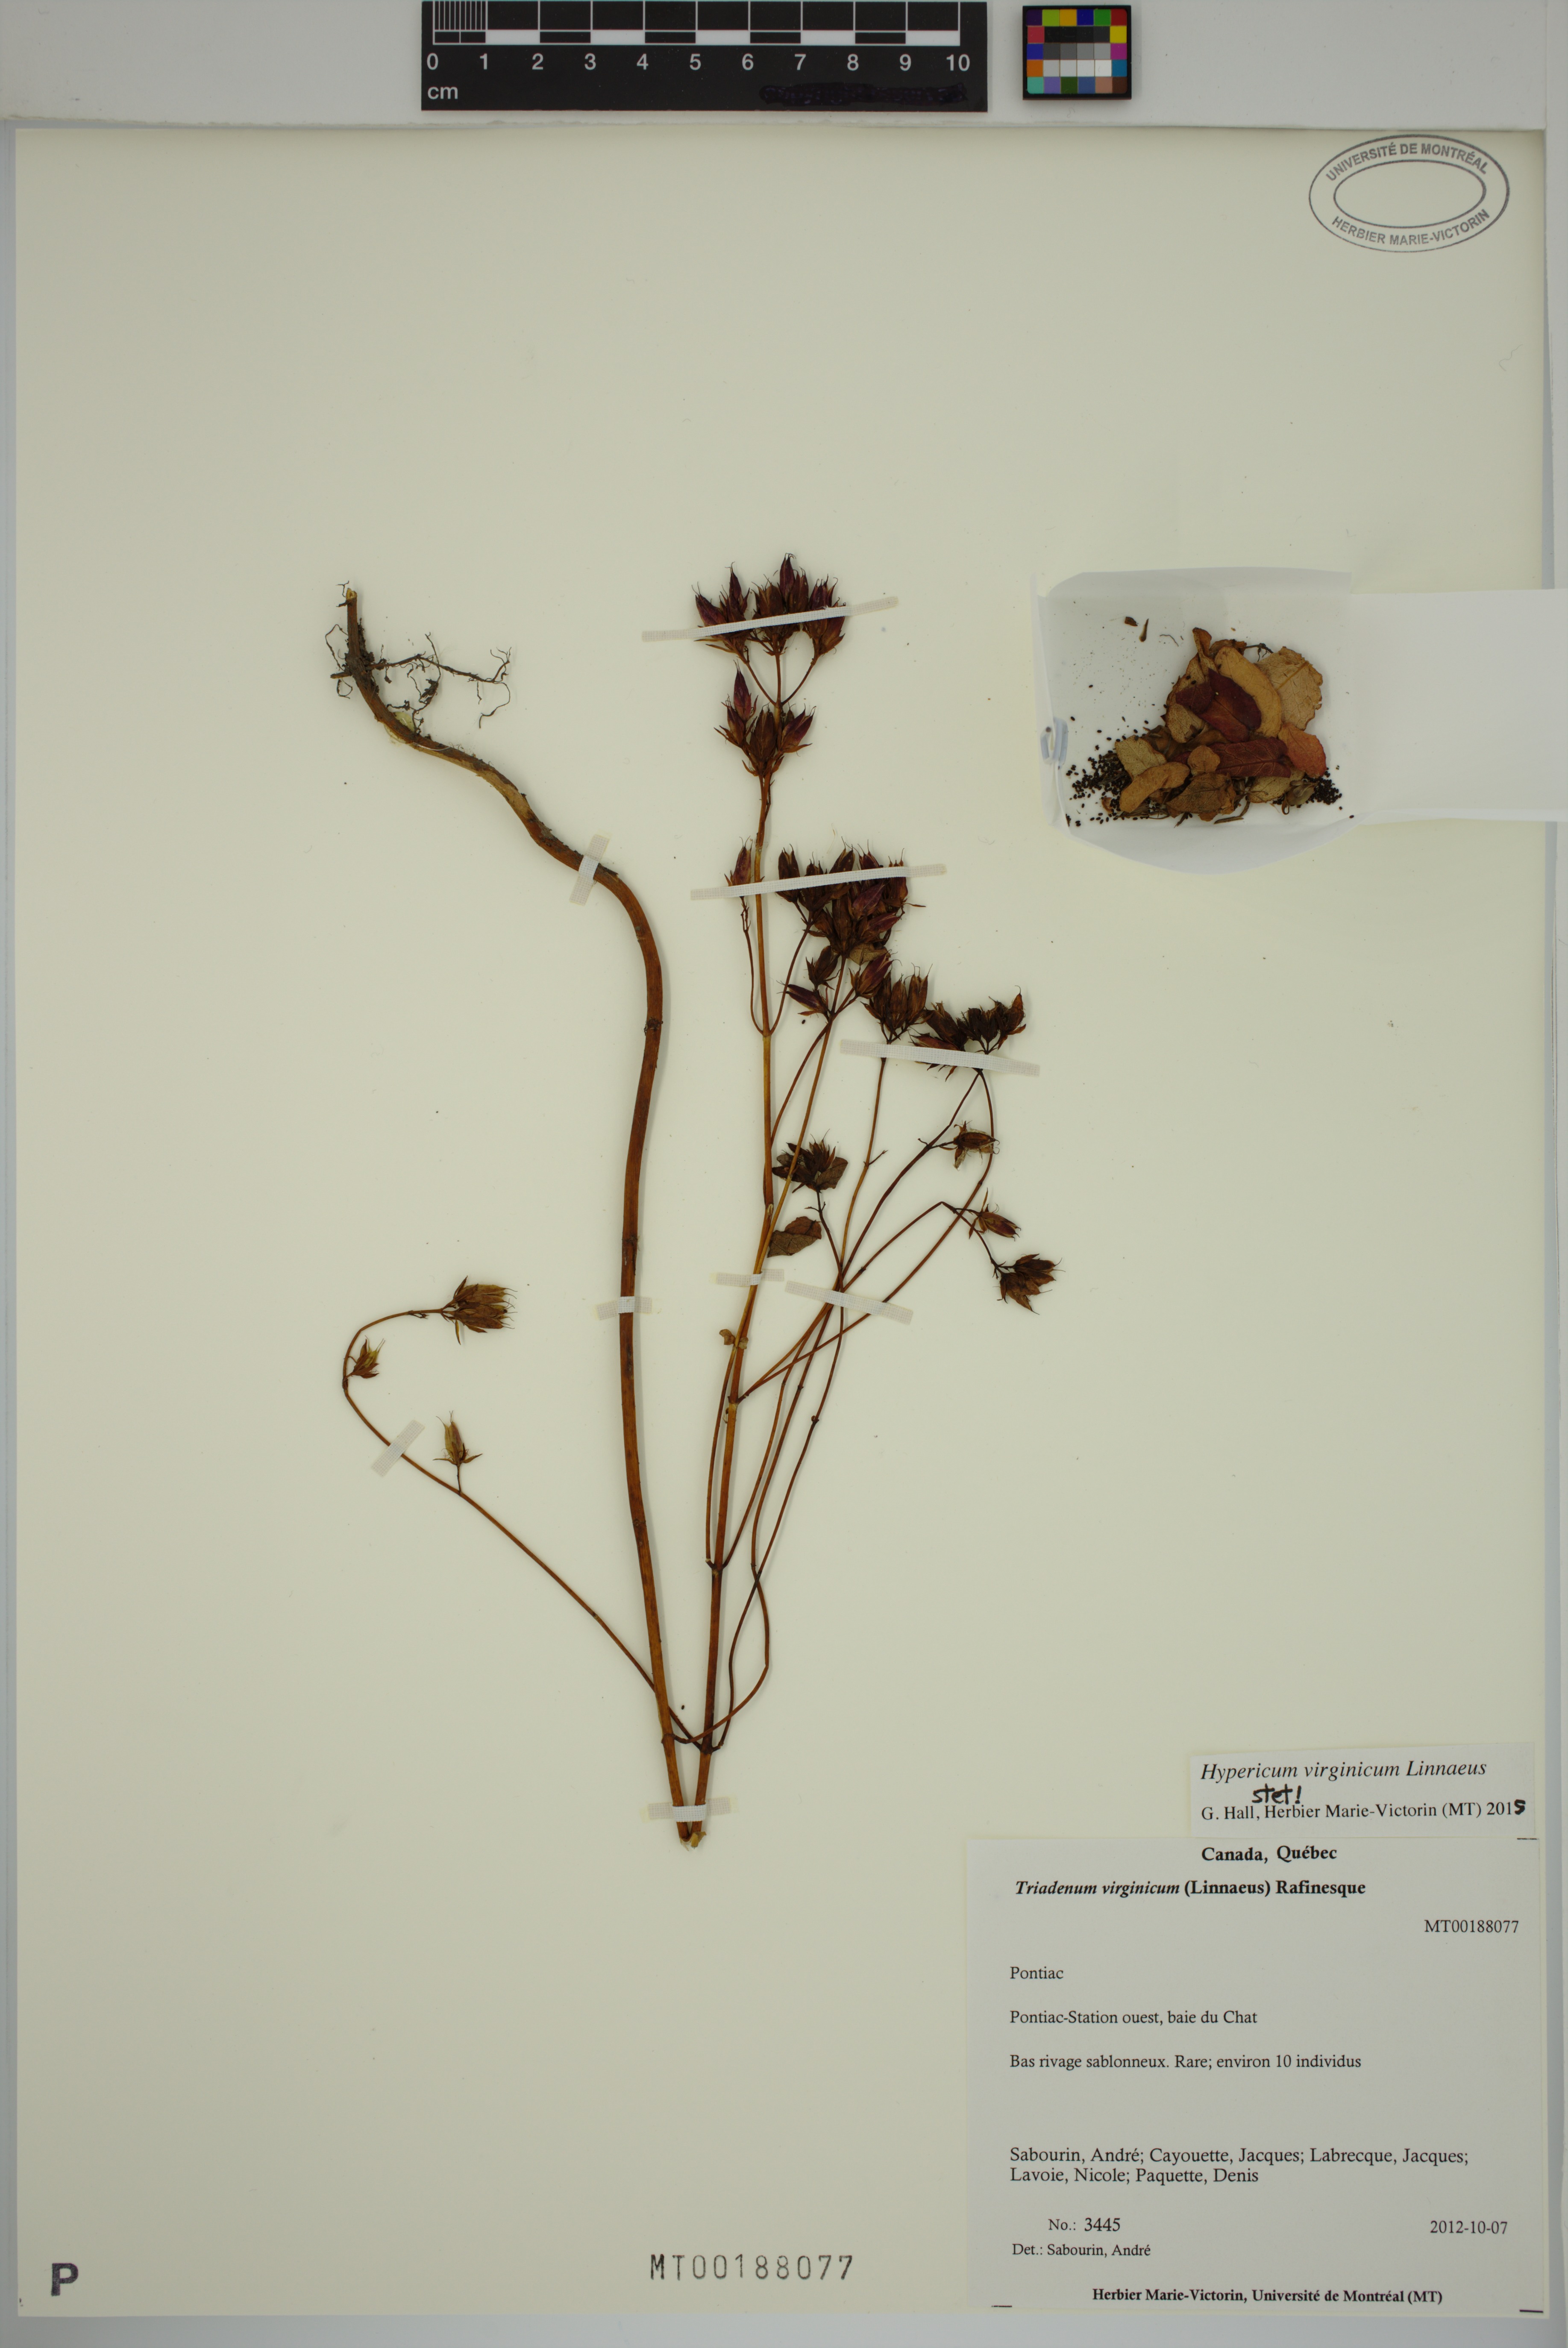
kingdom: Plantae
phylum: Tracheophyta
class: Magnoliopsida
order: Malpighiales
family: Hypericaceae
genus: Triadenum
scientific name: Triadenum virginicum
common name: Marsh st. john's-wort
